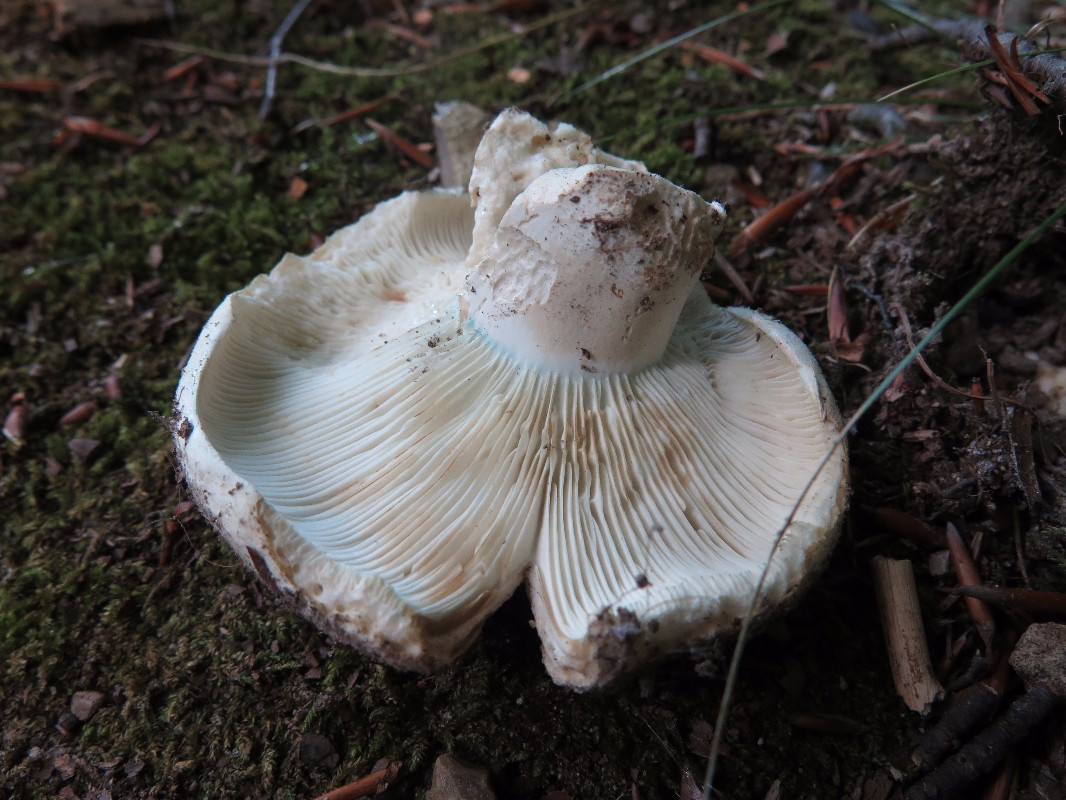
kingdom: Fungi
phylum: Basidiomycota
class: Agaricomycetes
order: Russulales
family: Russulaceae
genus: Russula
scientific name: Russula chloroides
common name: grønhalset tragt-skørhat
